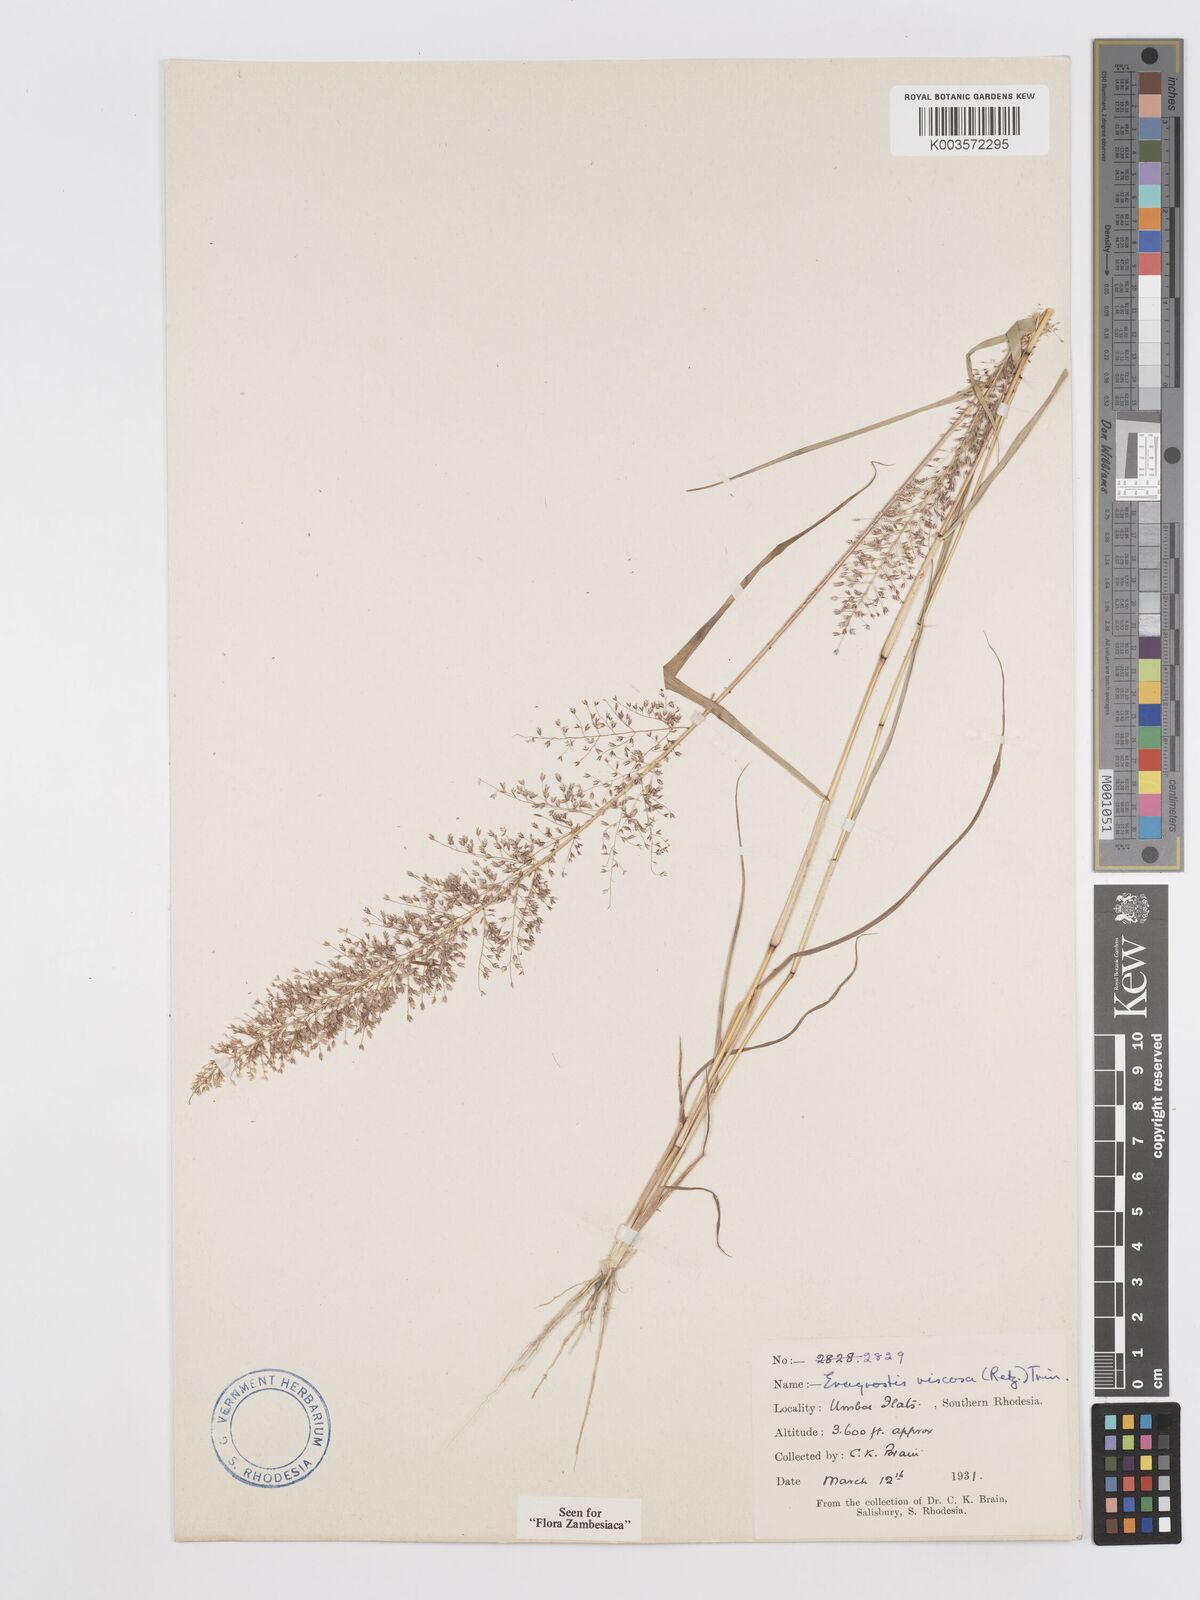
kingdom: Plantae
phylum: Tracheophyta
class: Liliopsida
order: Poales
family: Poaceae
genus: Eragrostis
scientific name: Eragrostis
